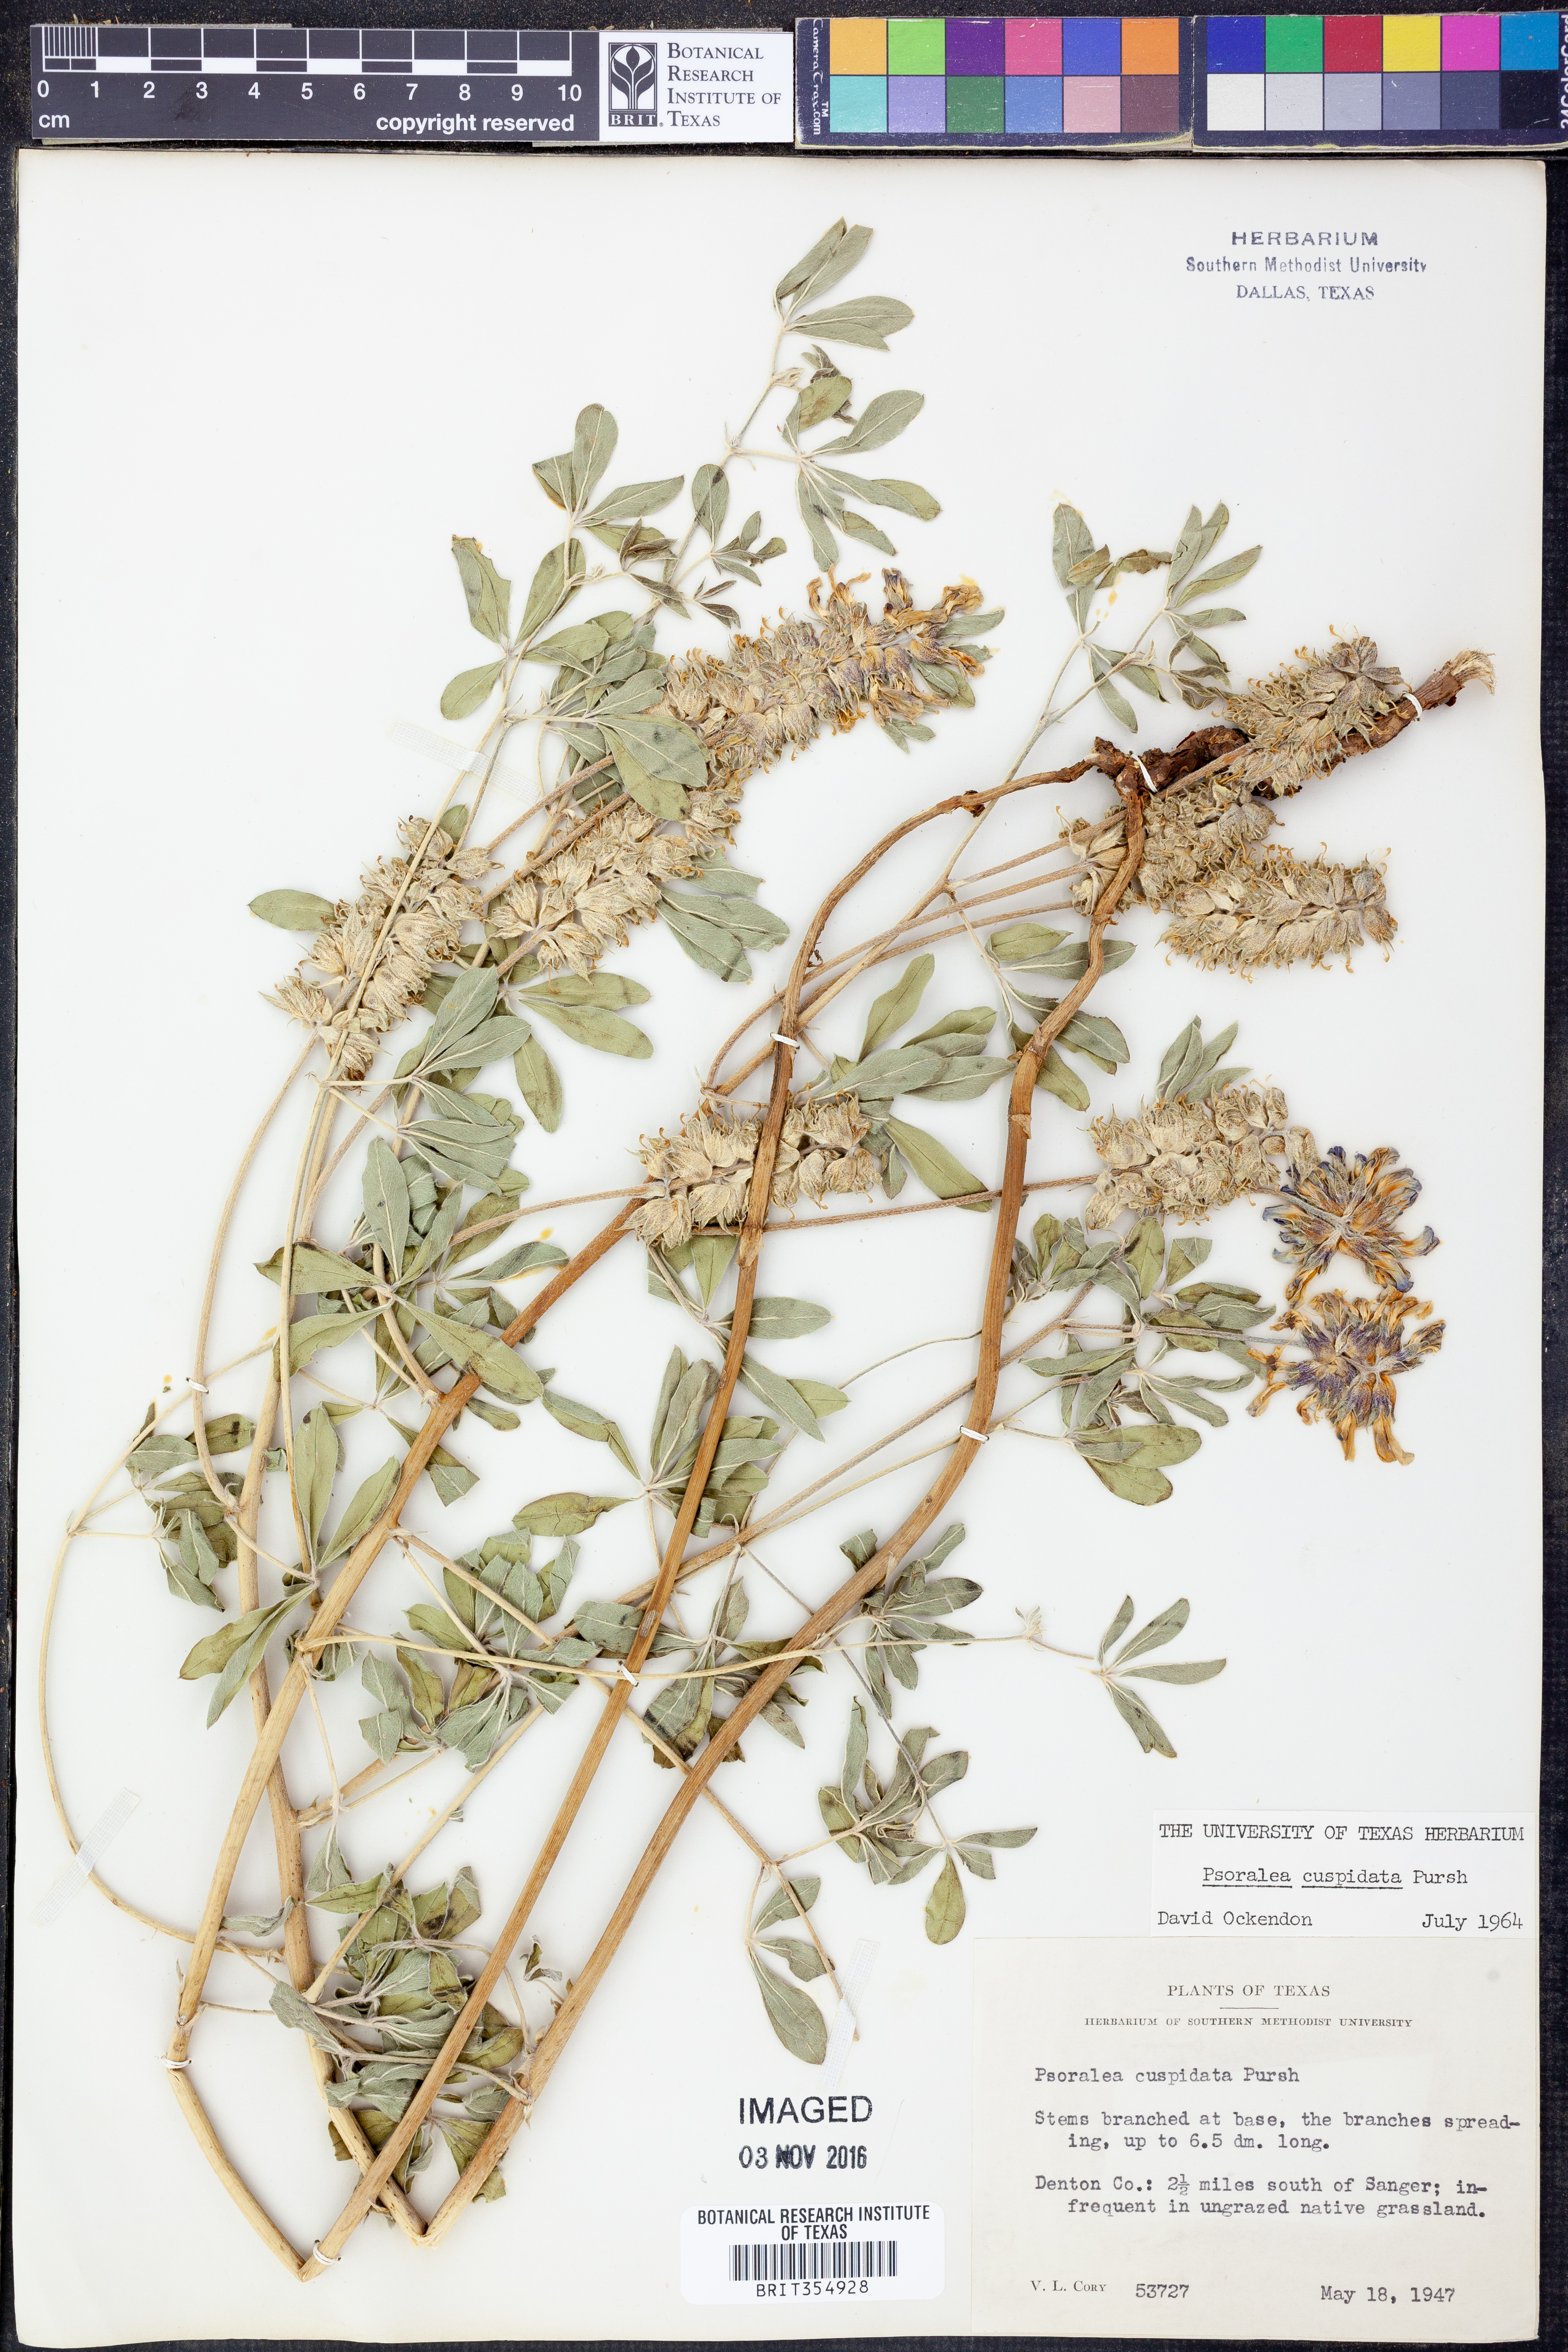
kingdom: Plantae
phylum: Tracheophyta
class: Magnoliopsida
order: Fabales
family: Fabaceae
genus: Pediomelum
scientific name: Pediomelum cuspidatum
